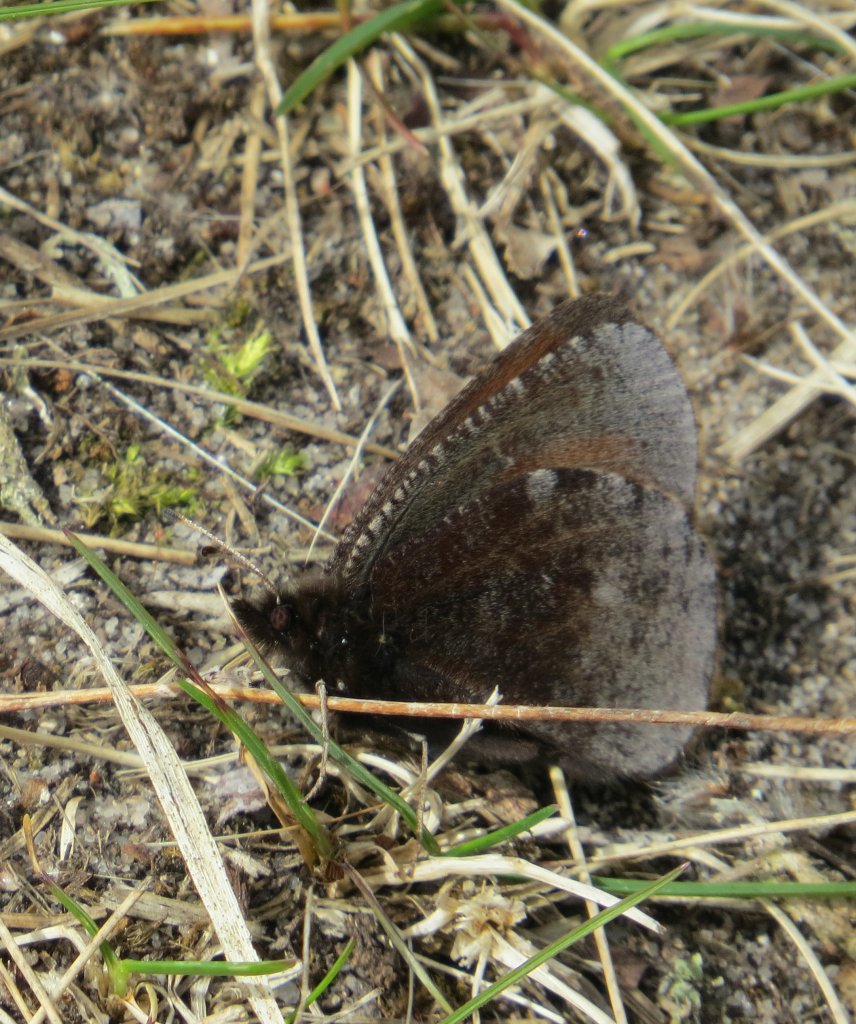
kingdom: Animalia
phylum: Arthropoda
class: Insecta
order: Lepidoptera
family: Nymphalidae
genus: Erebia
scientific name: Erebia discoidalis
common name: Red-disked Alpine
